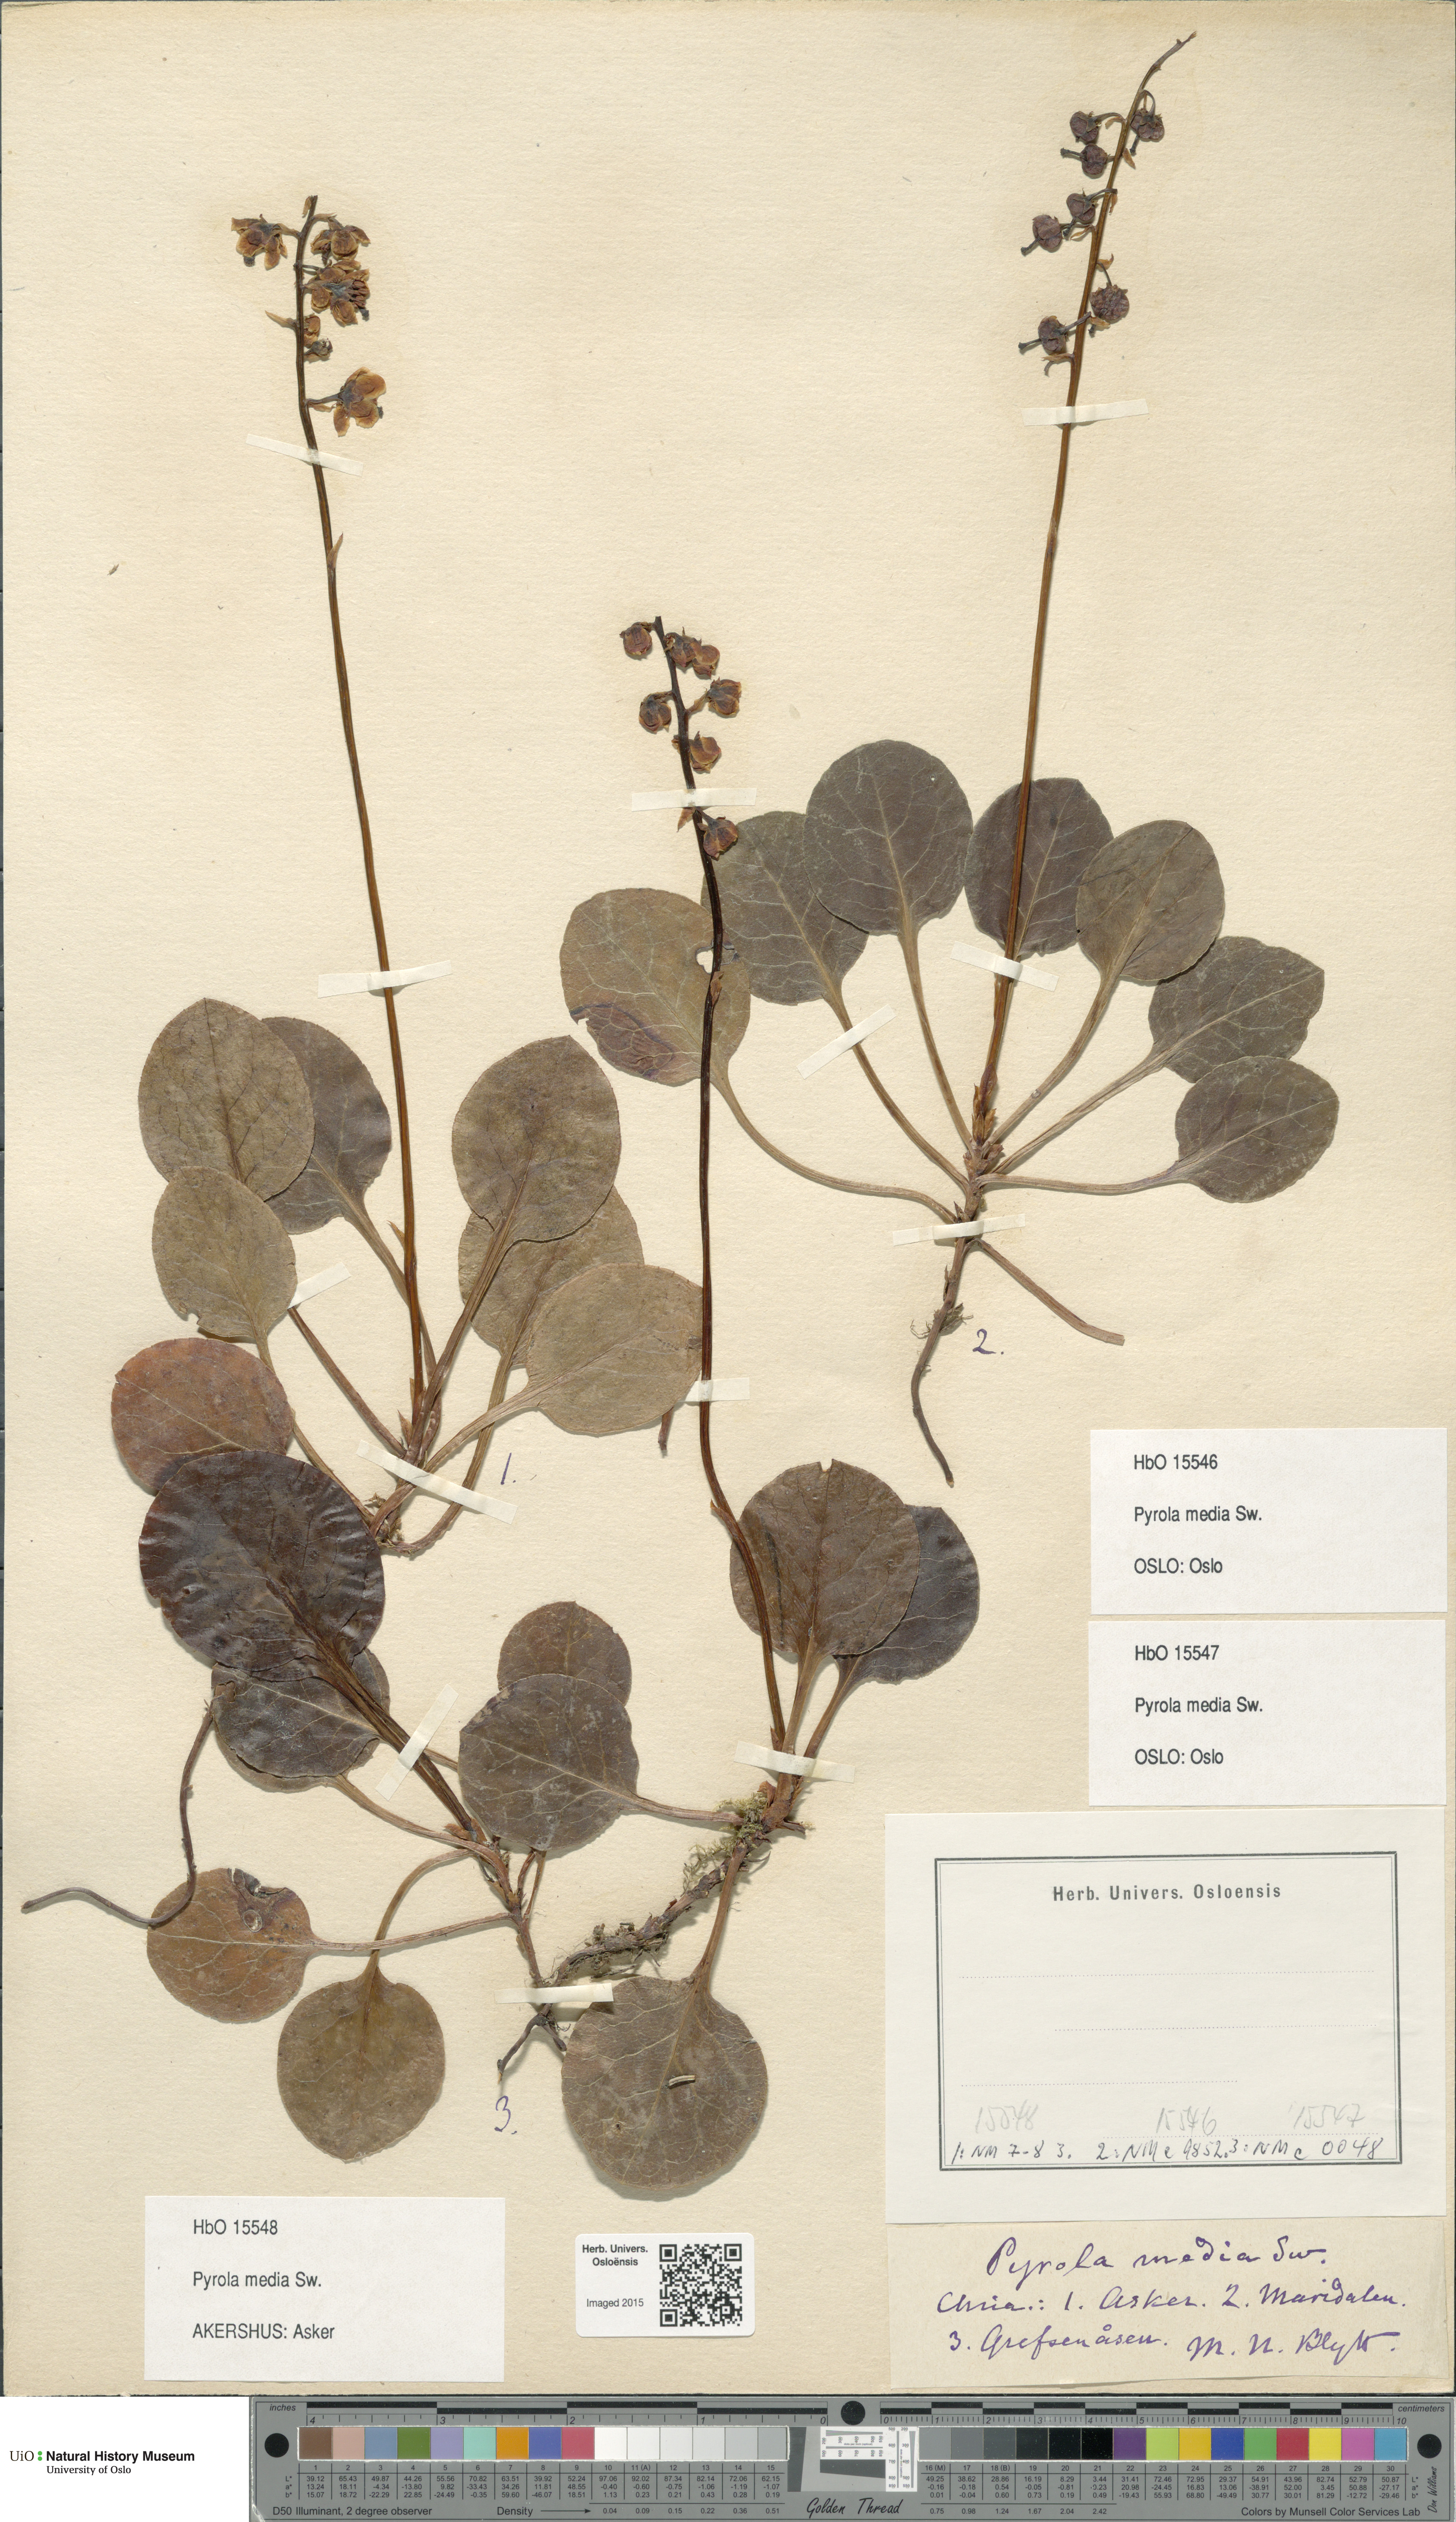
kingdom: Plantae
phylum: Tracheophyta
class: Magnoliopsida
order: Ericales
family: Ericaceae
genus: Pyrola
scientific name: Pyrola media
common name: Intermediate wintergreen
